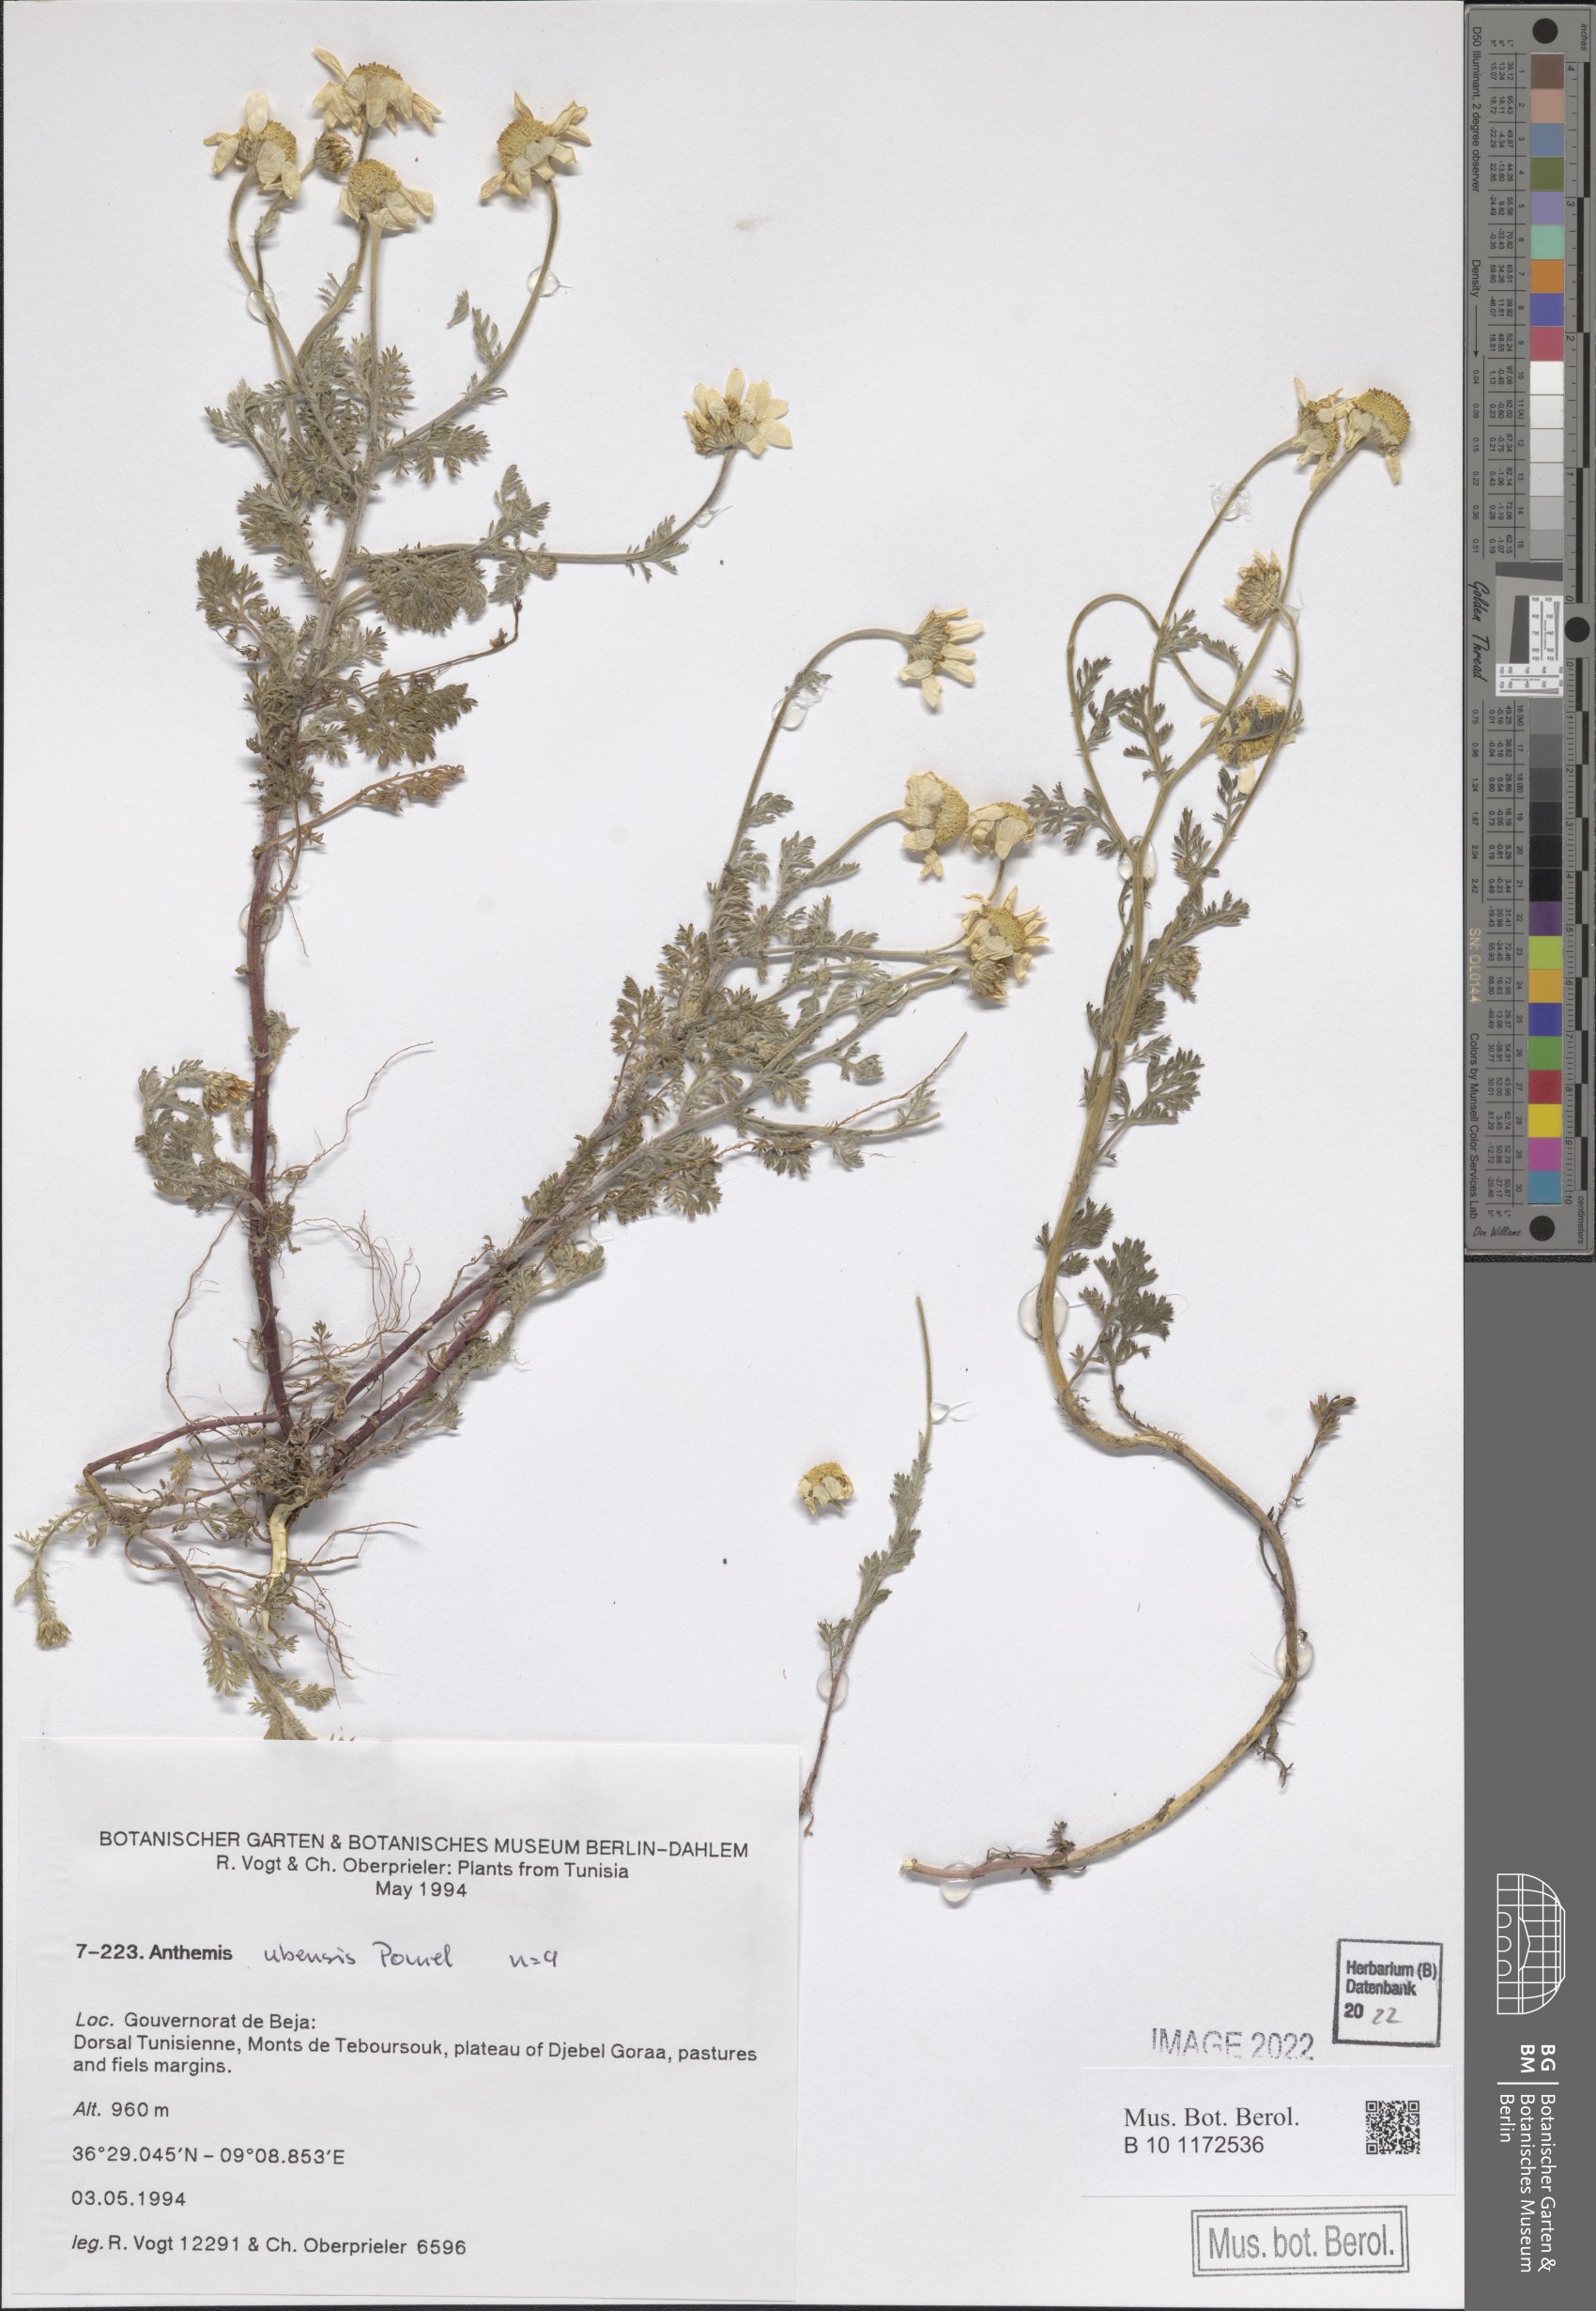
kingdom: Plantae
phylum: Tracheophyta
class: Magnoliopsida
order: Asterales
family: Asteraceae
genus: Anthemis
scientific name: Anthemis ubensis
